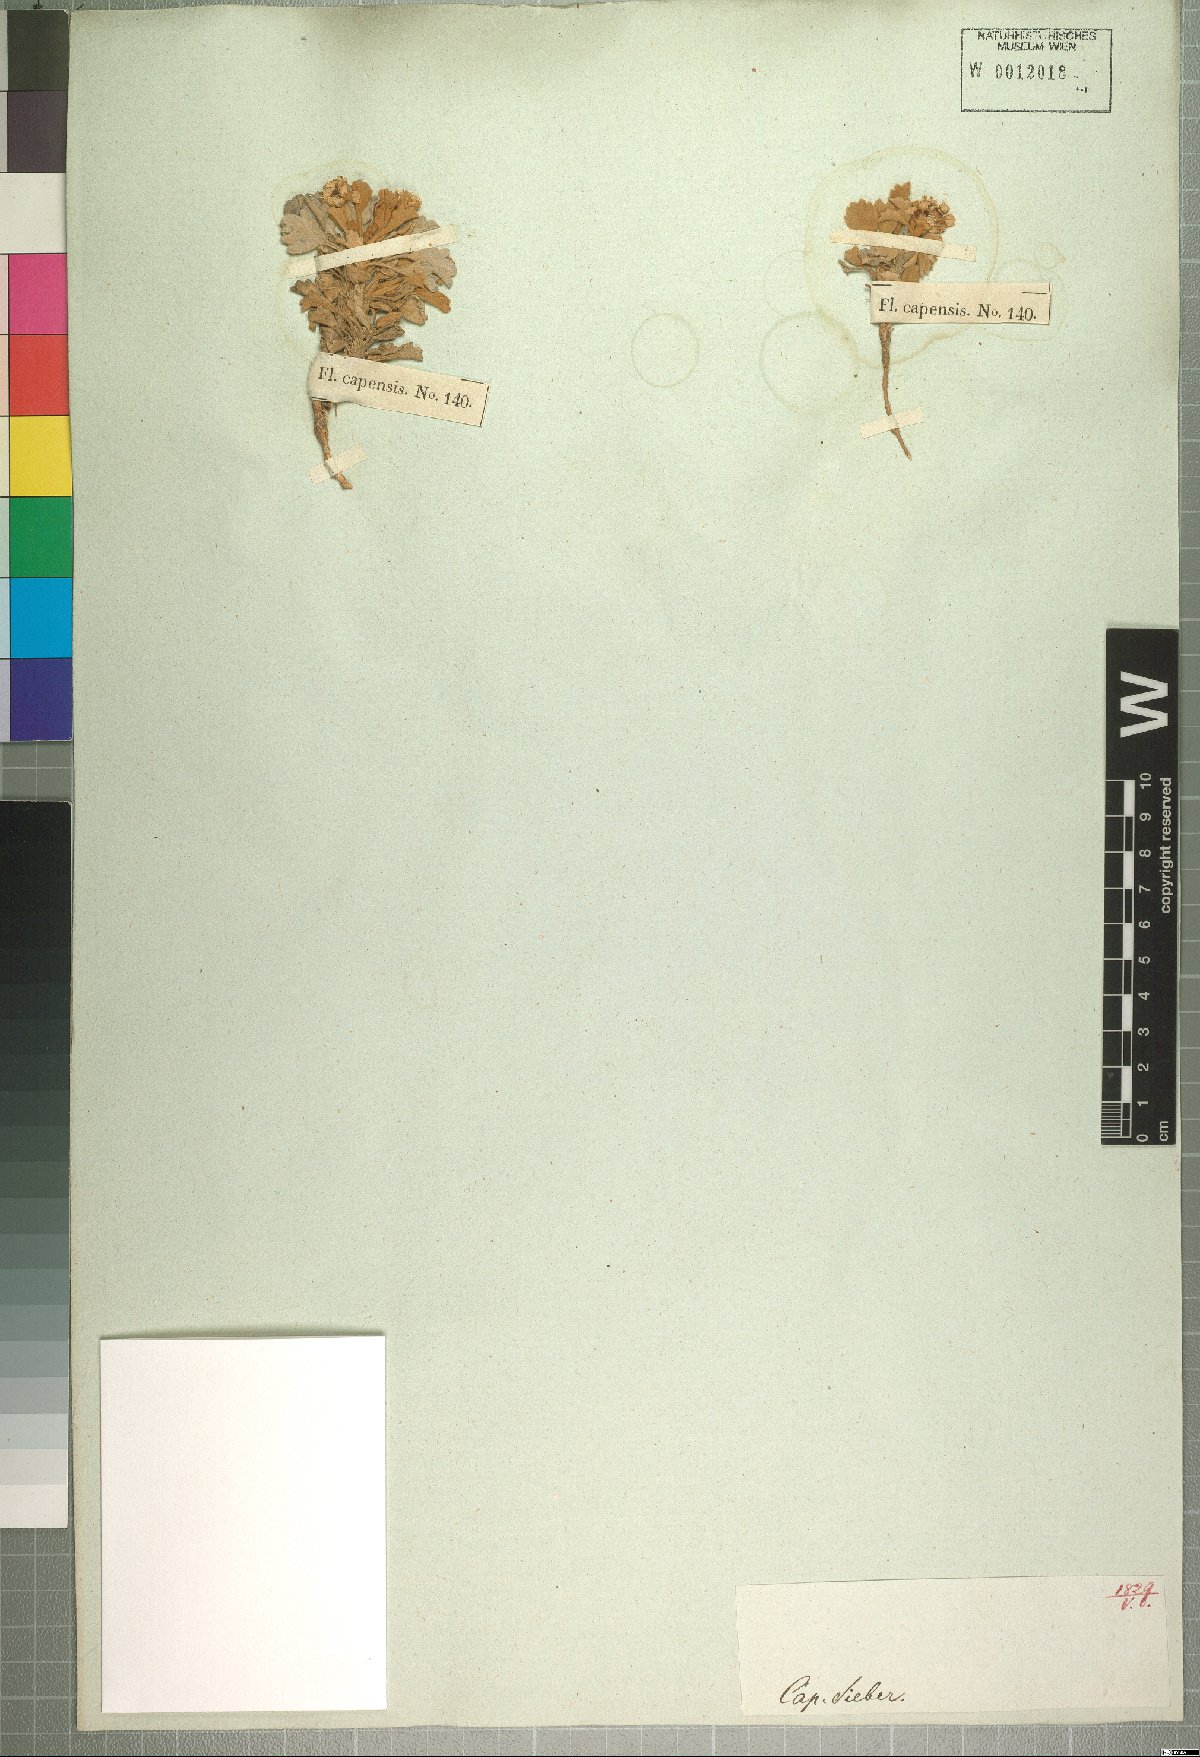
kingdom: Plantae
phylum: Tracheophyta
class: Magnoliopsida
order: Apiales
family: Apiaceae
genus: Centella
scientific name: Centella capensis
